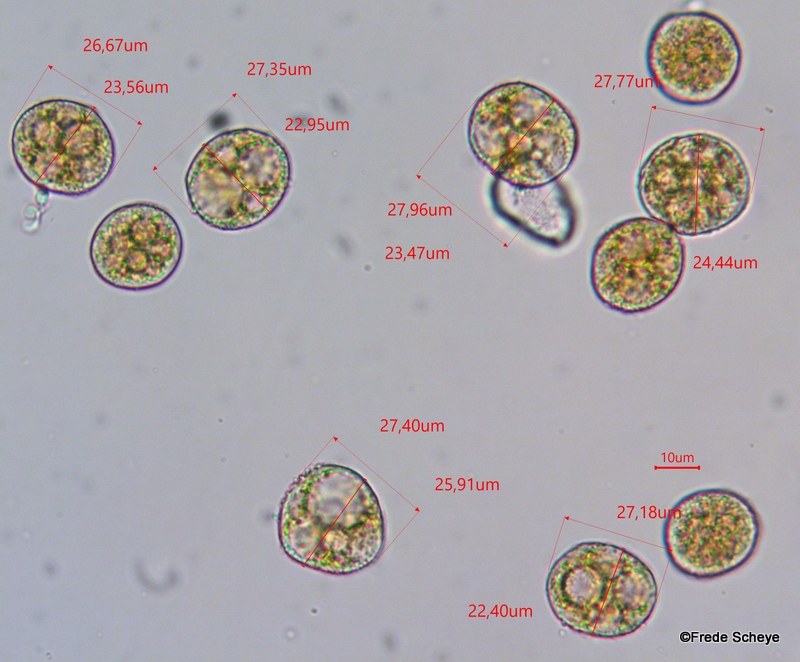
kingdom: Fungi
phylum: Basidiomycota
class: Pucciniomycetes
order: Pucciniales
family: Pucciniaceae
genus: Uromyces
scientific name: Uromyces dactylidis
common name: ranunkel-encellerust
